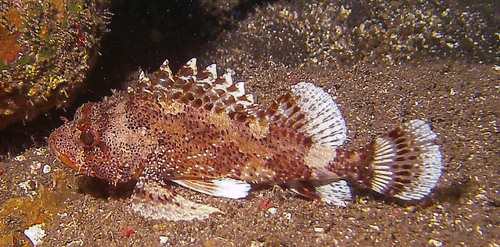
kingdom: Animalia
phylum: Chordata
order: Scorpaeniformes
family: Scorpaenidae
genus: Scorpaena
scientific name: Scorpaena maderensis
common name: Madeira rockfish
